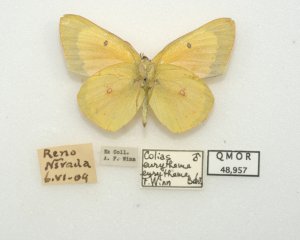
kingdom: Animalia
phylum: Arthropoda
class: Insecta
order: Lepidoptera
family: Pieridae
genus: Colias
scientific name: Colias eurytheme
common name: Orange Sulphur
